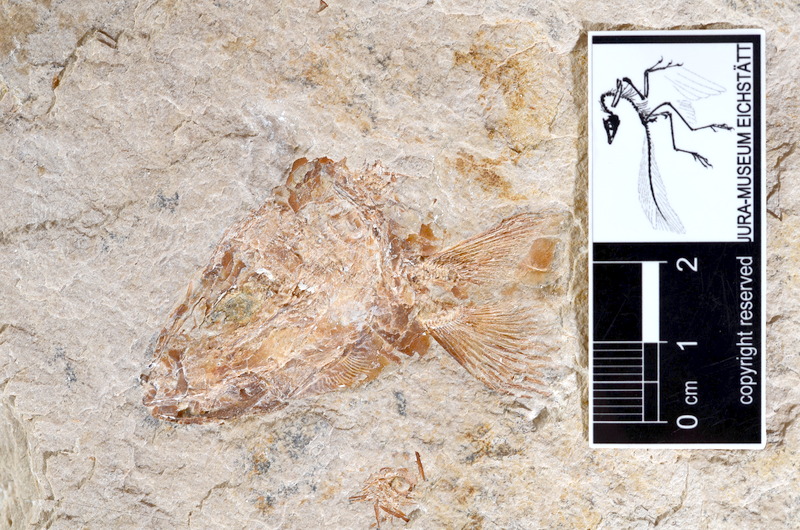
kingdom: Animalia
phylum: Chordata
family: Ascalaboidae
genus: Tharsis
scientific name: Tharsis dubius
